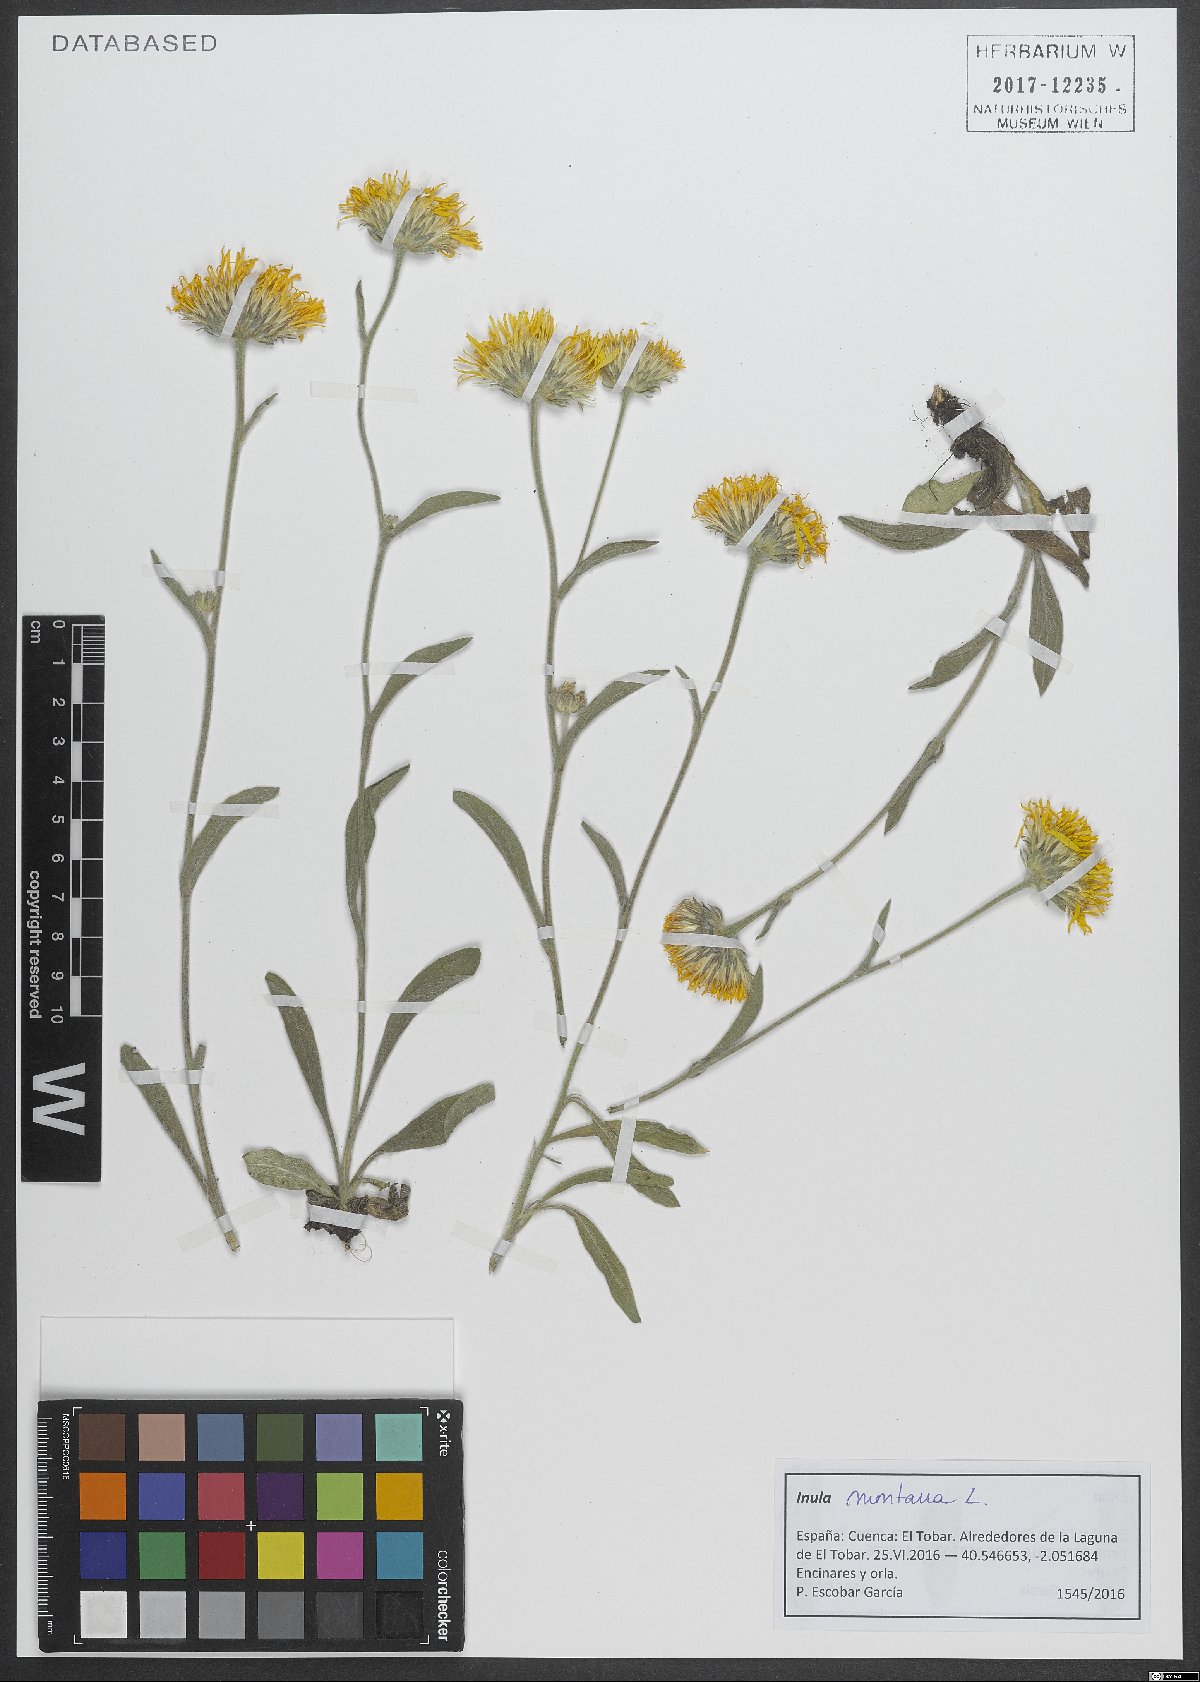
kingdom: Plantae
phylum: Tracheophyta
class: Magnoliopsida
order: Asterales
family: Asteraceae
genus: Pentanema
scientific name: Pentanema montanum
